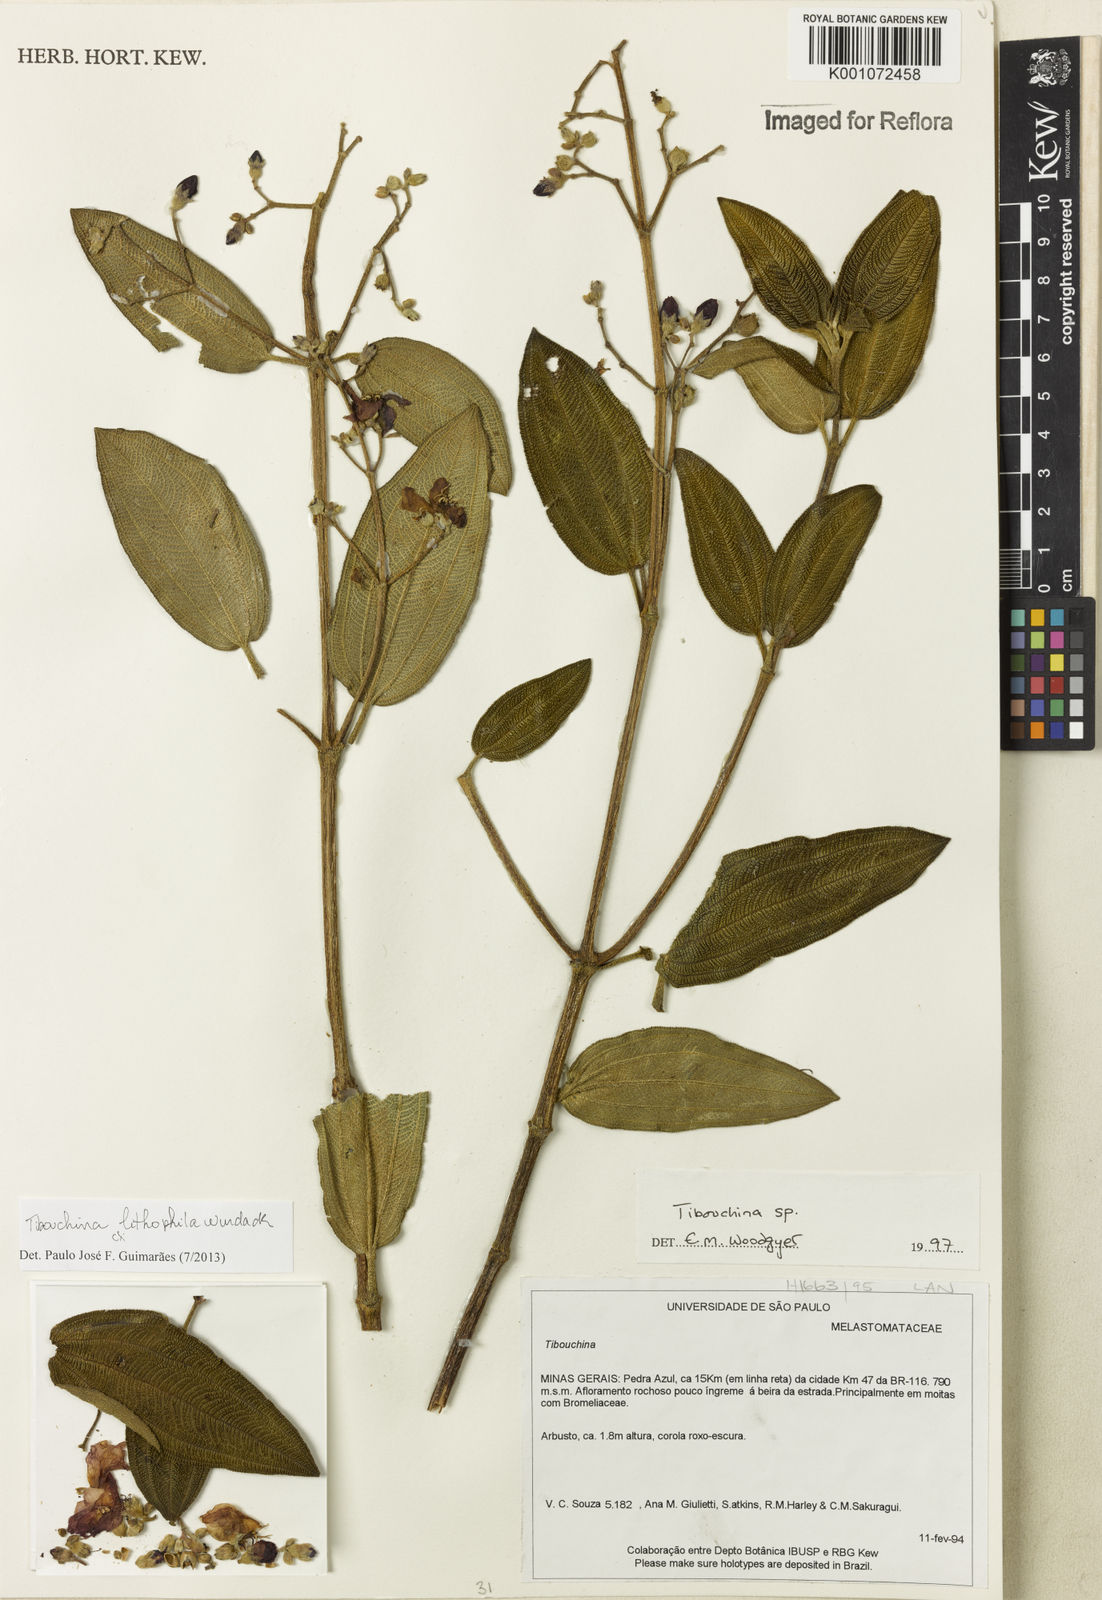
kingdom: Plantae
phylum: Tracheophyta
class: Magnoliopsida
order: Myrtales
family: Melastomataceae
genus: Tibouchina
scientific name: Tibouchina lithophila
